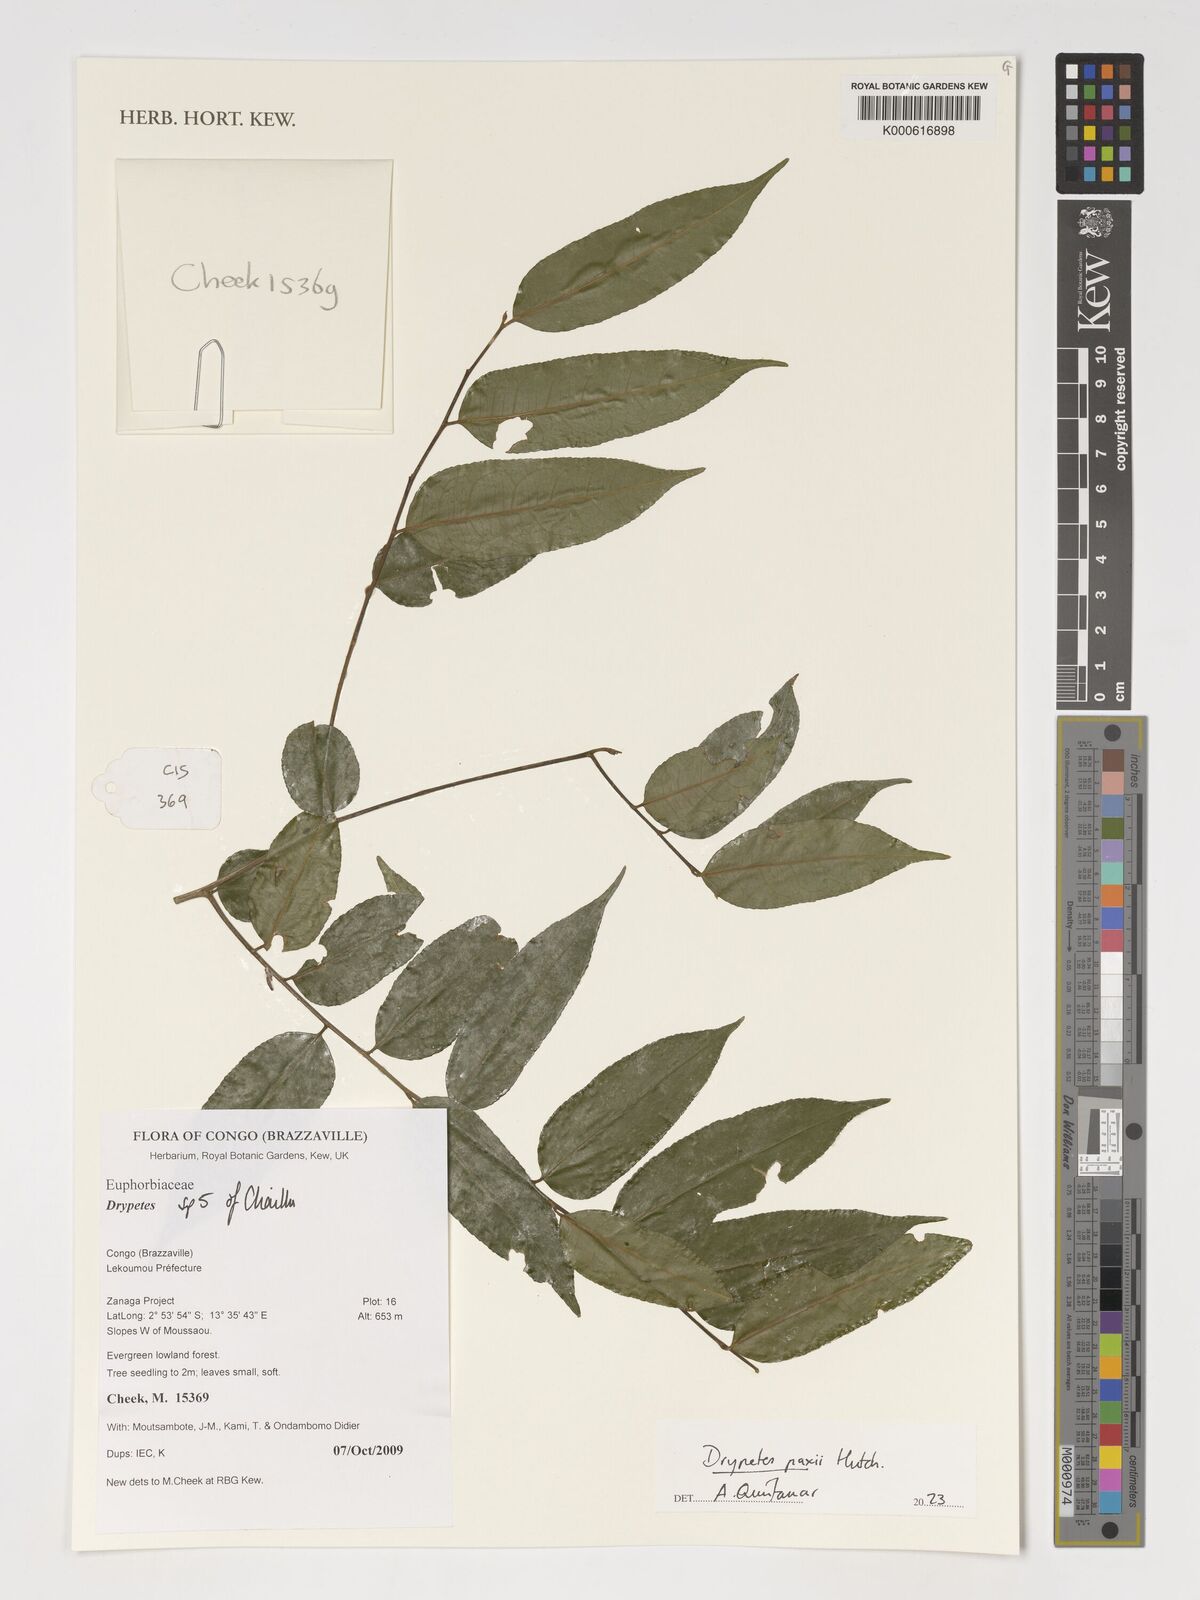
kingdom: Plantae
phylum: Tracheophyta
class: Magnoliopsida
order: Malpighiales
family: Putranjivaceae
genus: Drypetes
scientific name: Drypetes paxii
